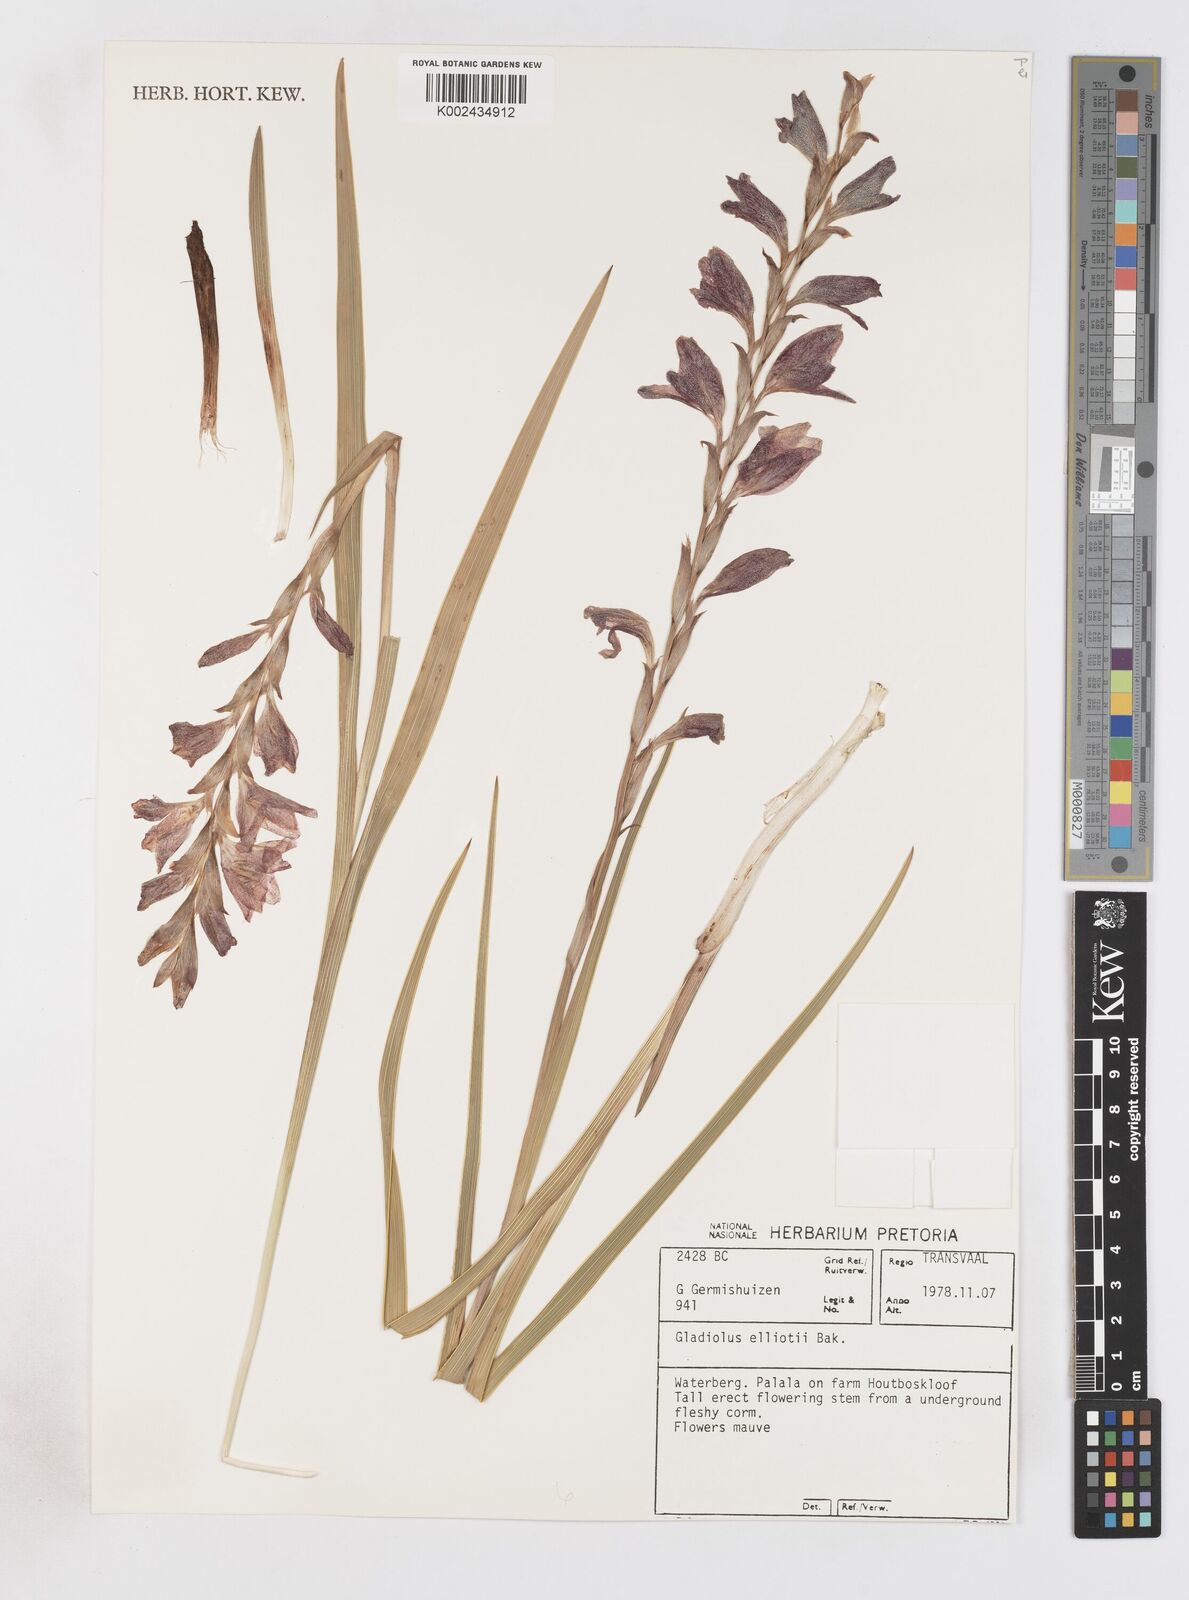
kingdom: Plantae
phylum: Tracheophyta
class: Liliopsida
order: Asparagales
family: Iridaceae
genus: Gladiolus
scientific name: Gladiolus elliotii
